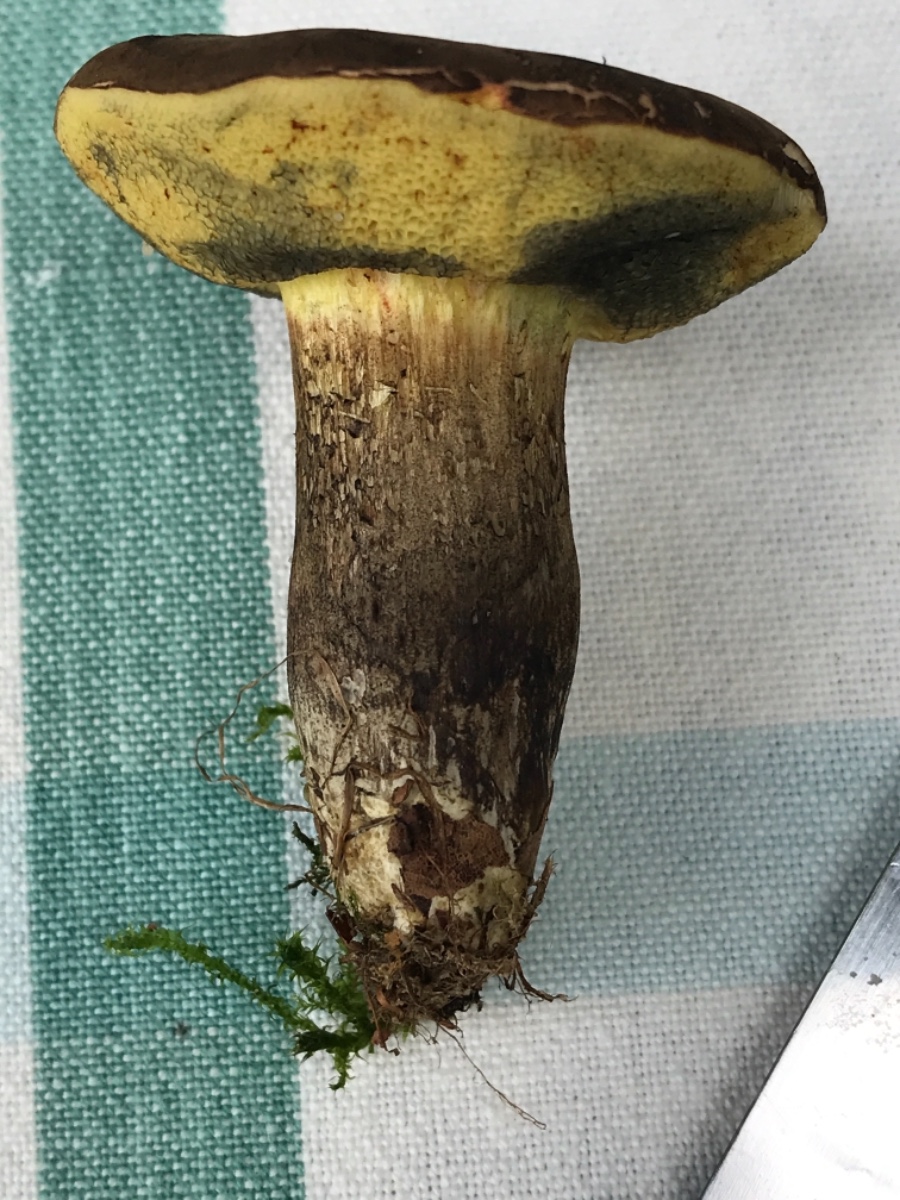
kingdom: Fungi
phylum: Basidiomycota
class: Agaricomycetes
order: Boletales
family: Boletaceae
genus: Xerocomellus
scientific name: Xerocomellus porosporus
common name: hvidsprukken rørhat
